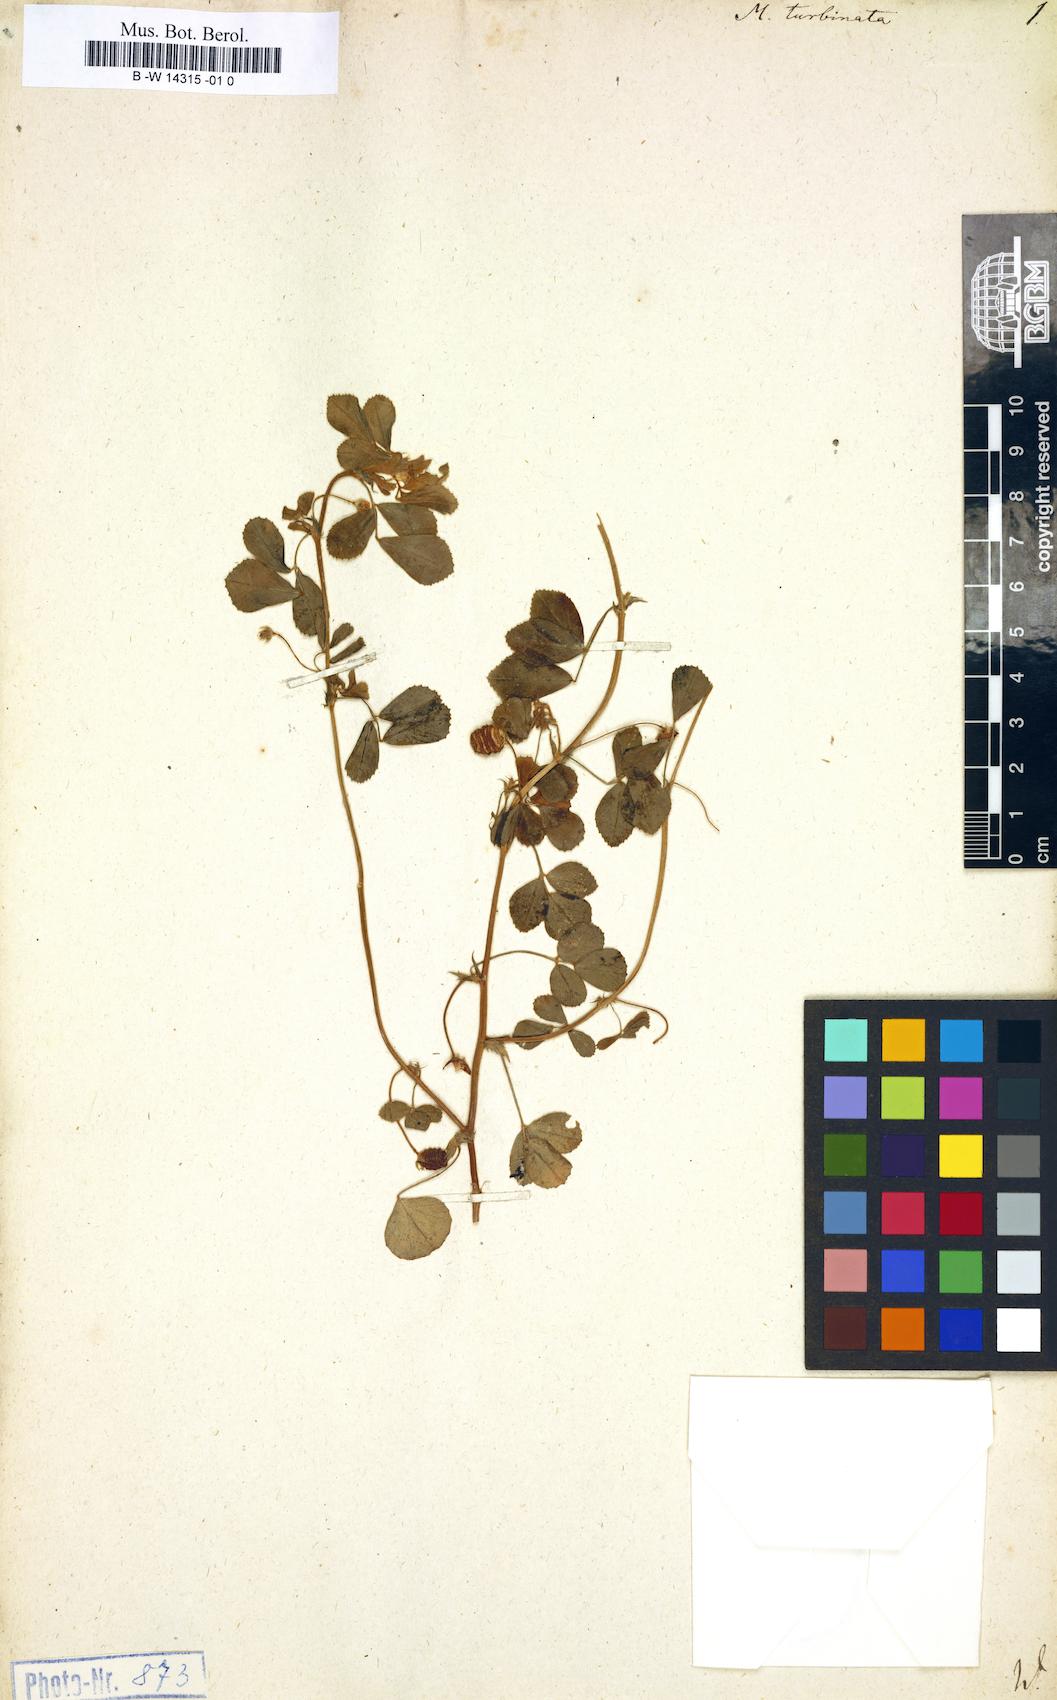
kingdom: Plantae
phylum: Tracheophyta
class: Magnoliopsida
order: Fabales
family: Fabaceae
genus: Medicago
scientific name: Medicago doliata
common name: Keg medic
